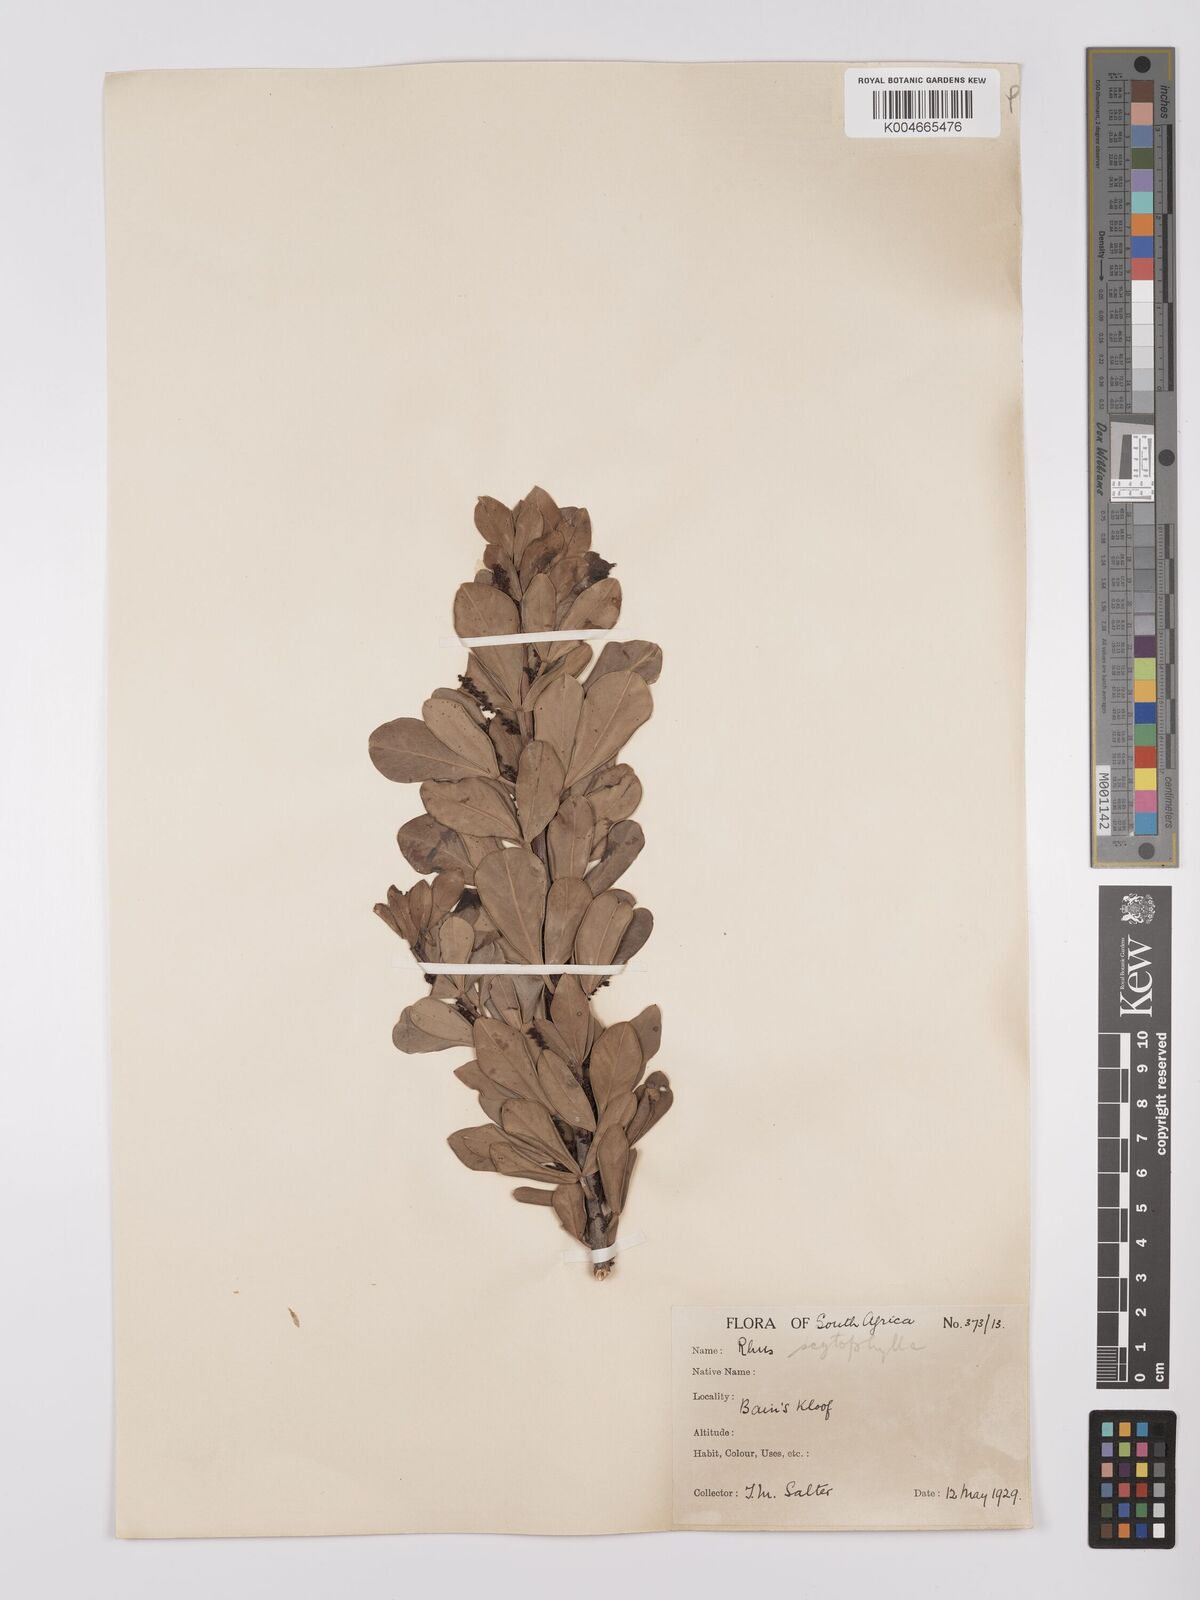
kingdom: Plantae
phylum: Tracheophyta
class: Magnoliopsida
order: Sapindales
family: Anacardiaceae
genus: Searsia
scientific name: Searsia scytophylla
